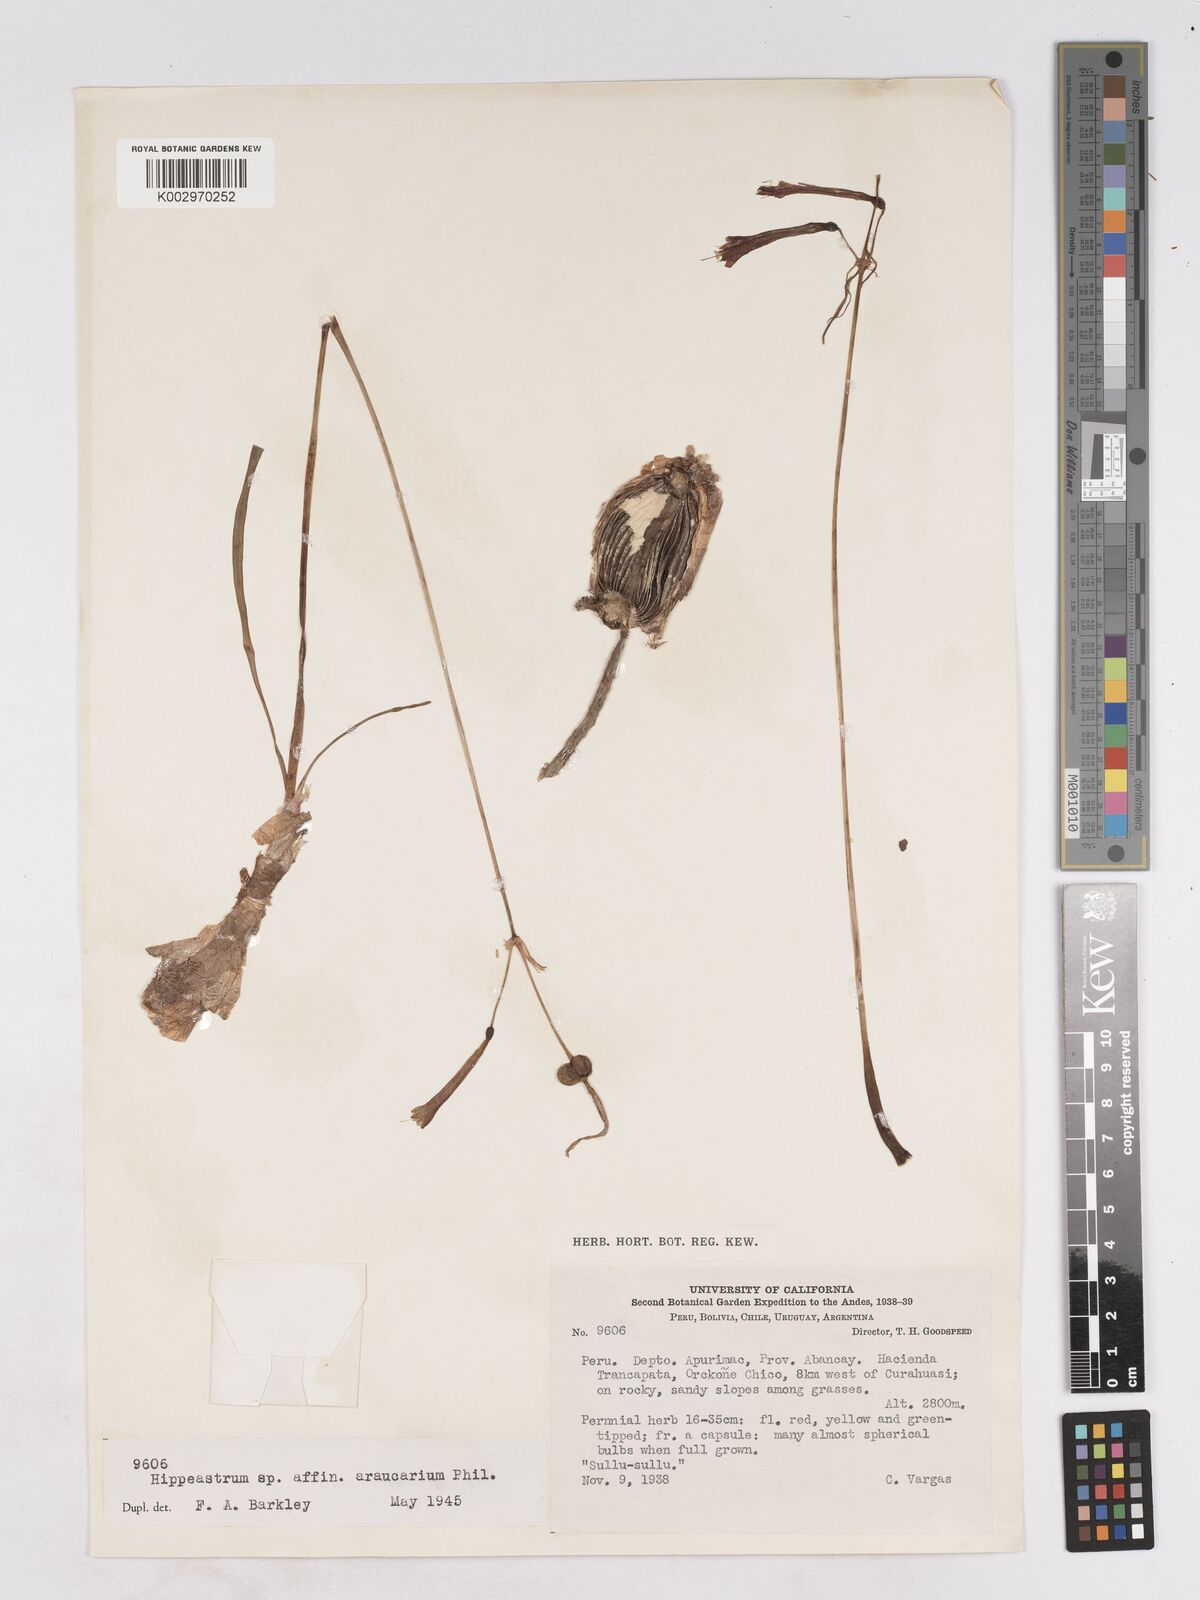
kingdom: Plantae
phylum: Tracheophyta
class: Liliopsida
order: Asparagales
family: Amaryllidaceae
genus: Eustephia
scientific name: Eustephia coccinea
